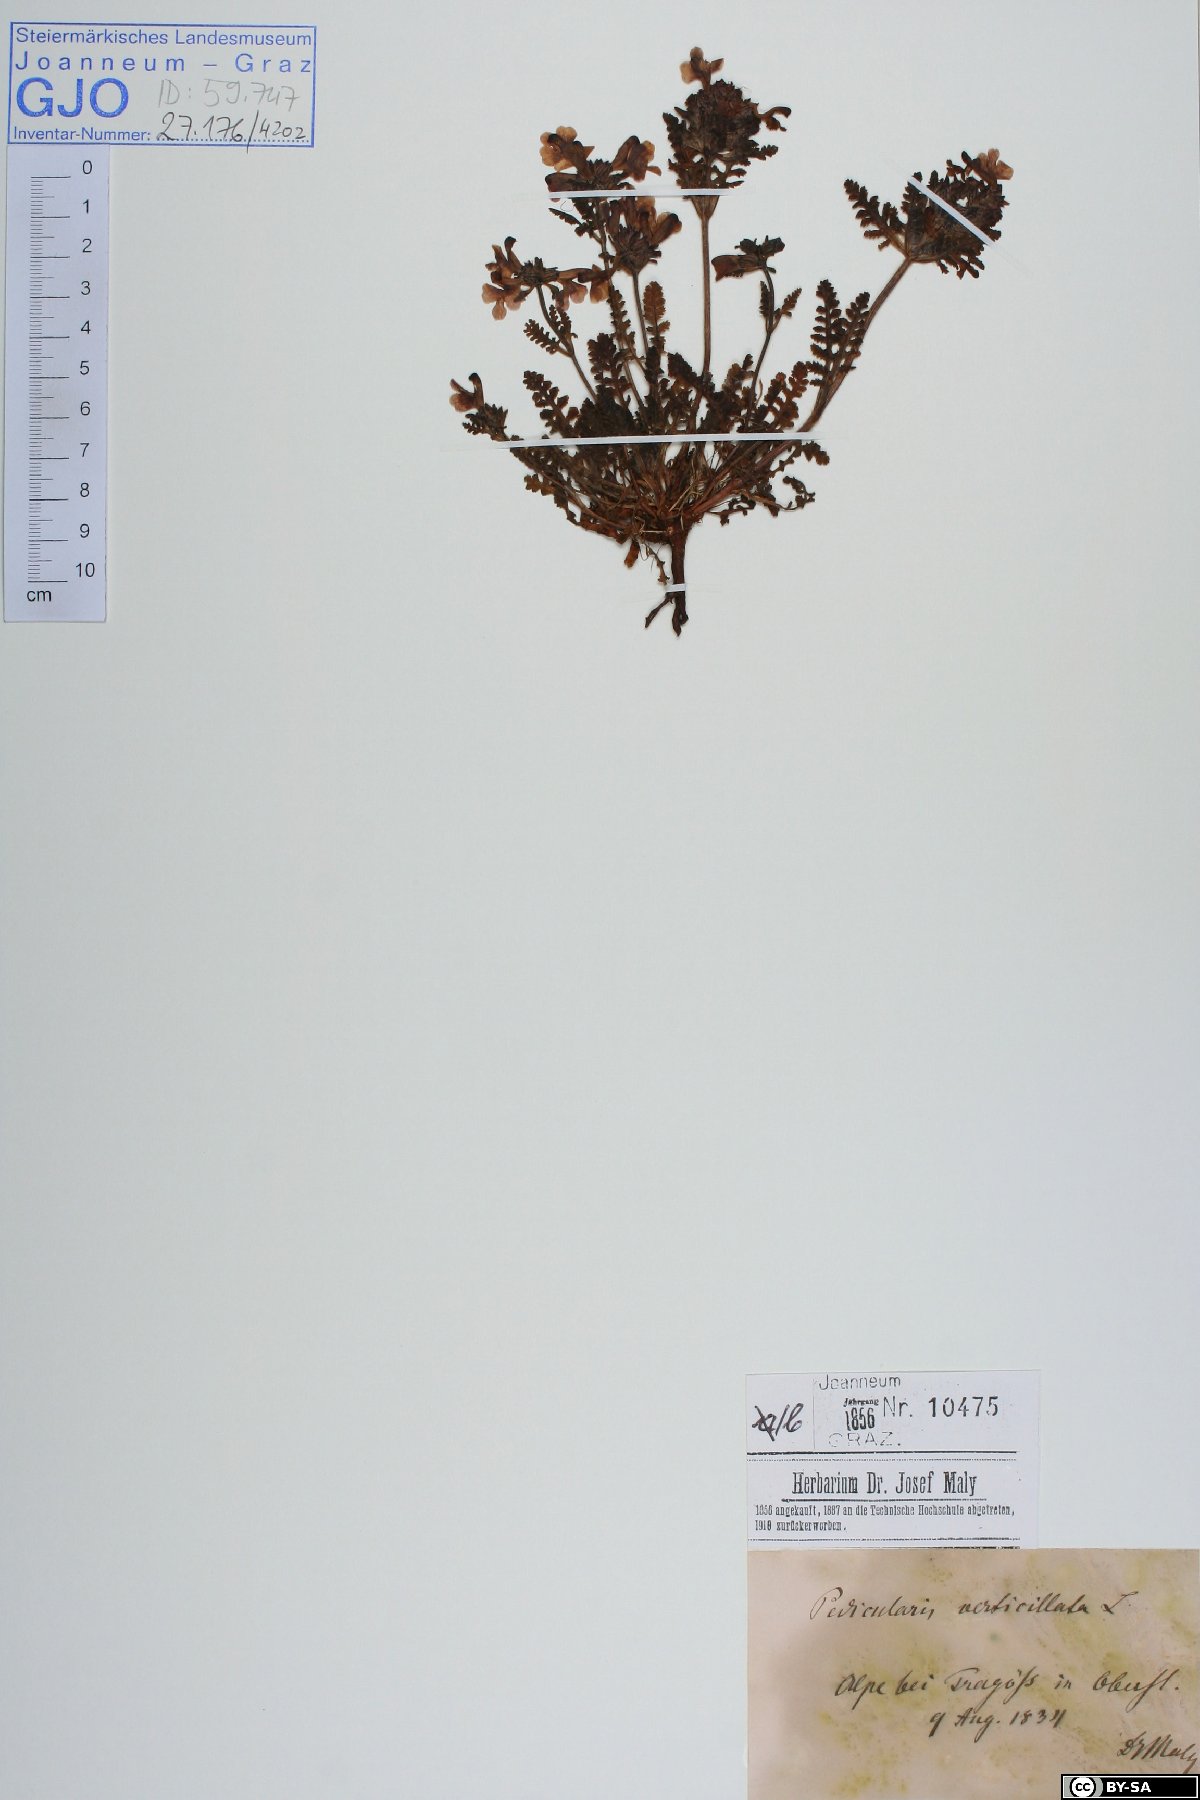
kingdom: Plantae
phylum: Tracheophyta
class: Magnoliopsida
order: Lamiales
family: Orobanchaceae
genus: Pedicularis
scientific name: Pedicularis verticillata
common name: Whorled lousewort
